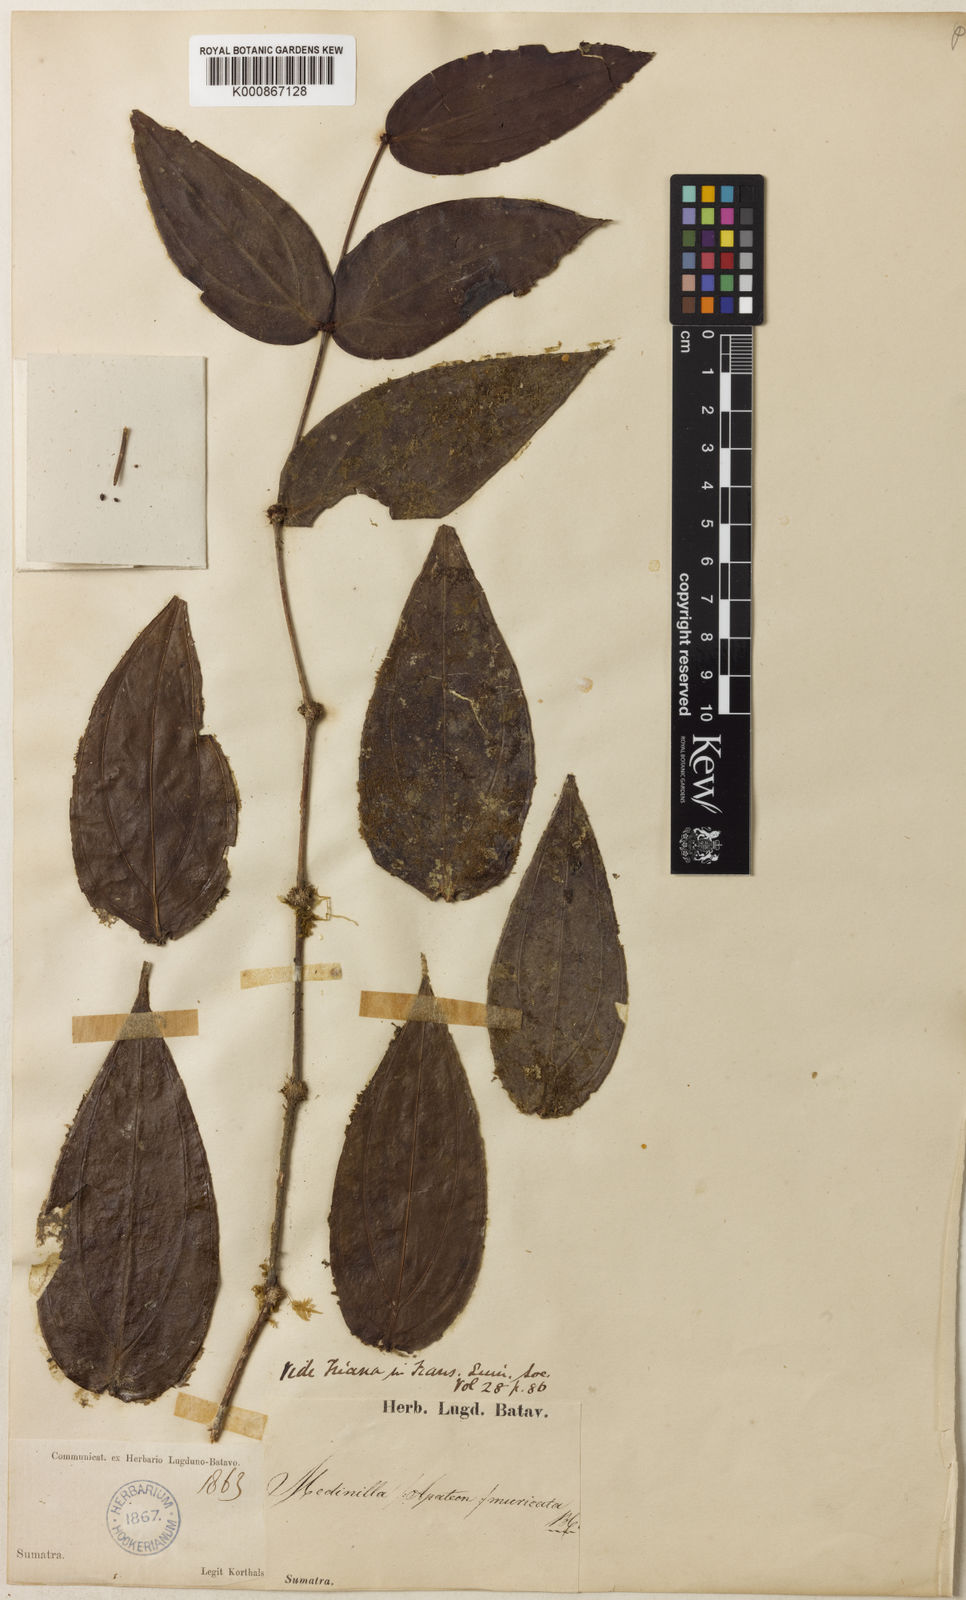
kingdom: Plantae
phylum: Tracheophyta
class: Magnoliopsida
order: Myrtales
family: Melastomataceae
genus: Medinilla
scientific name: Medinilla muricata
